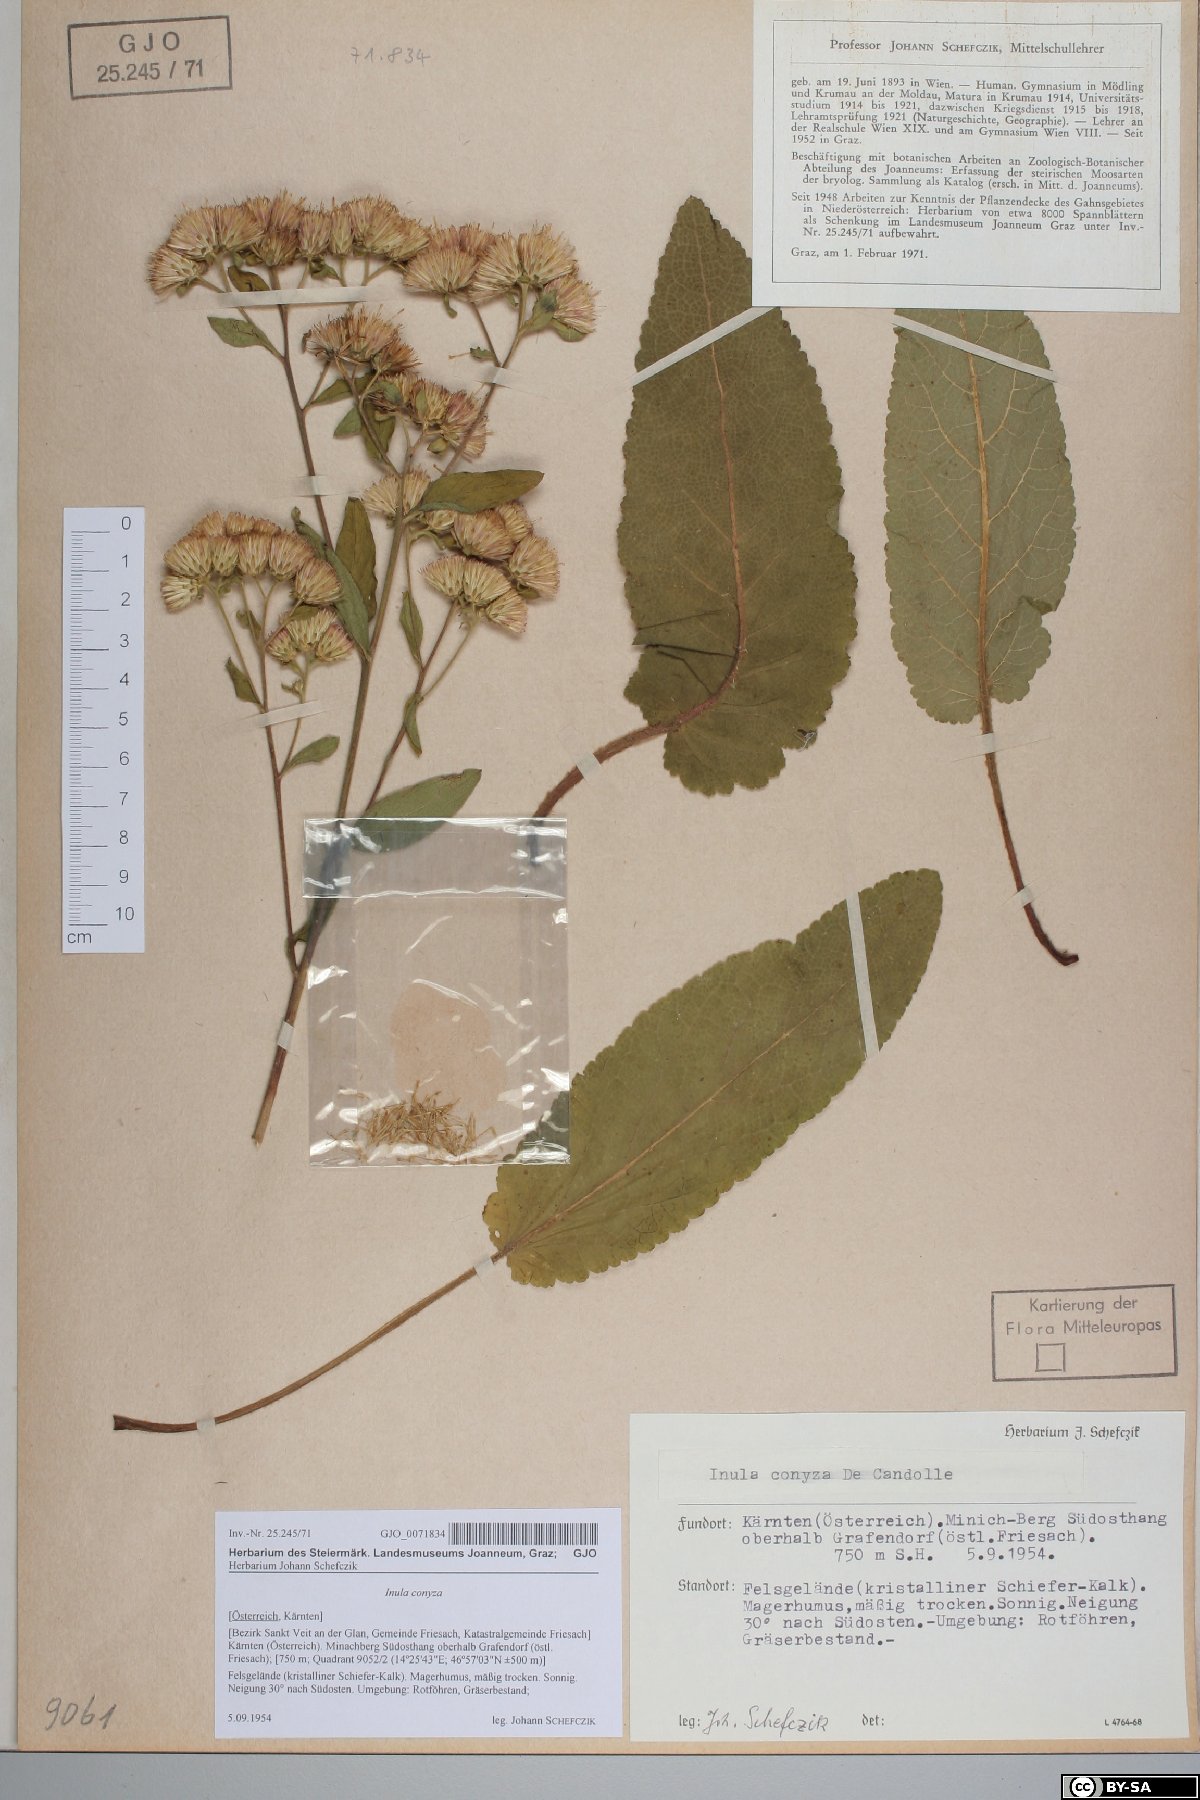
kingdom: Plantae
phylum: Tracheophyta
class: Magnoliopsida
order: Asterales
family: Asteraceae
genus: Pentanema
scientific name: Pentanema squarrosum
